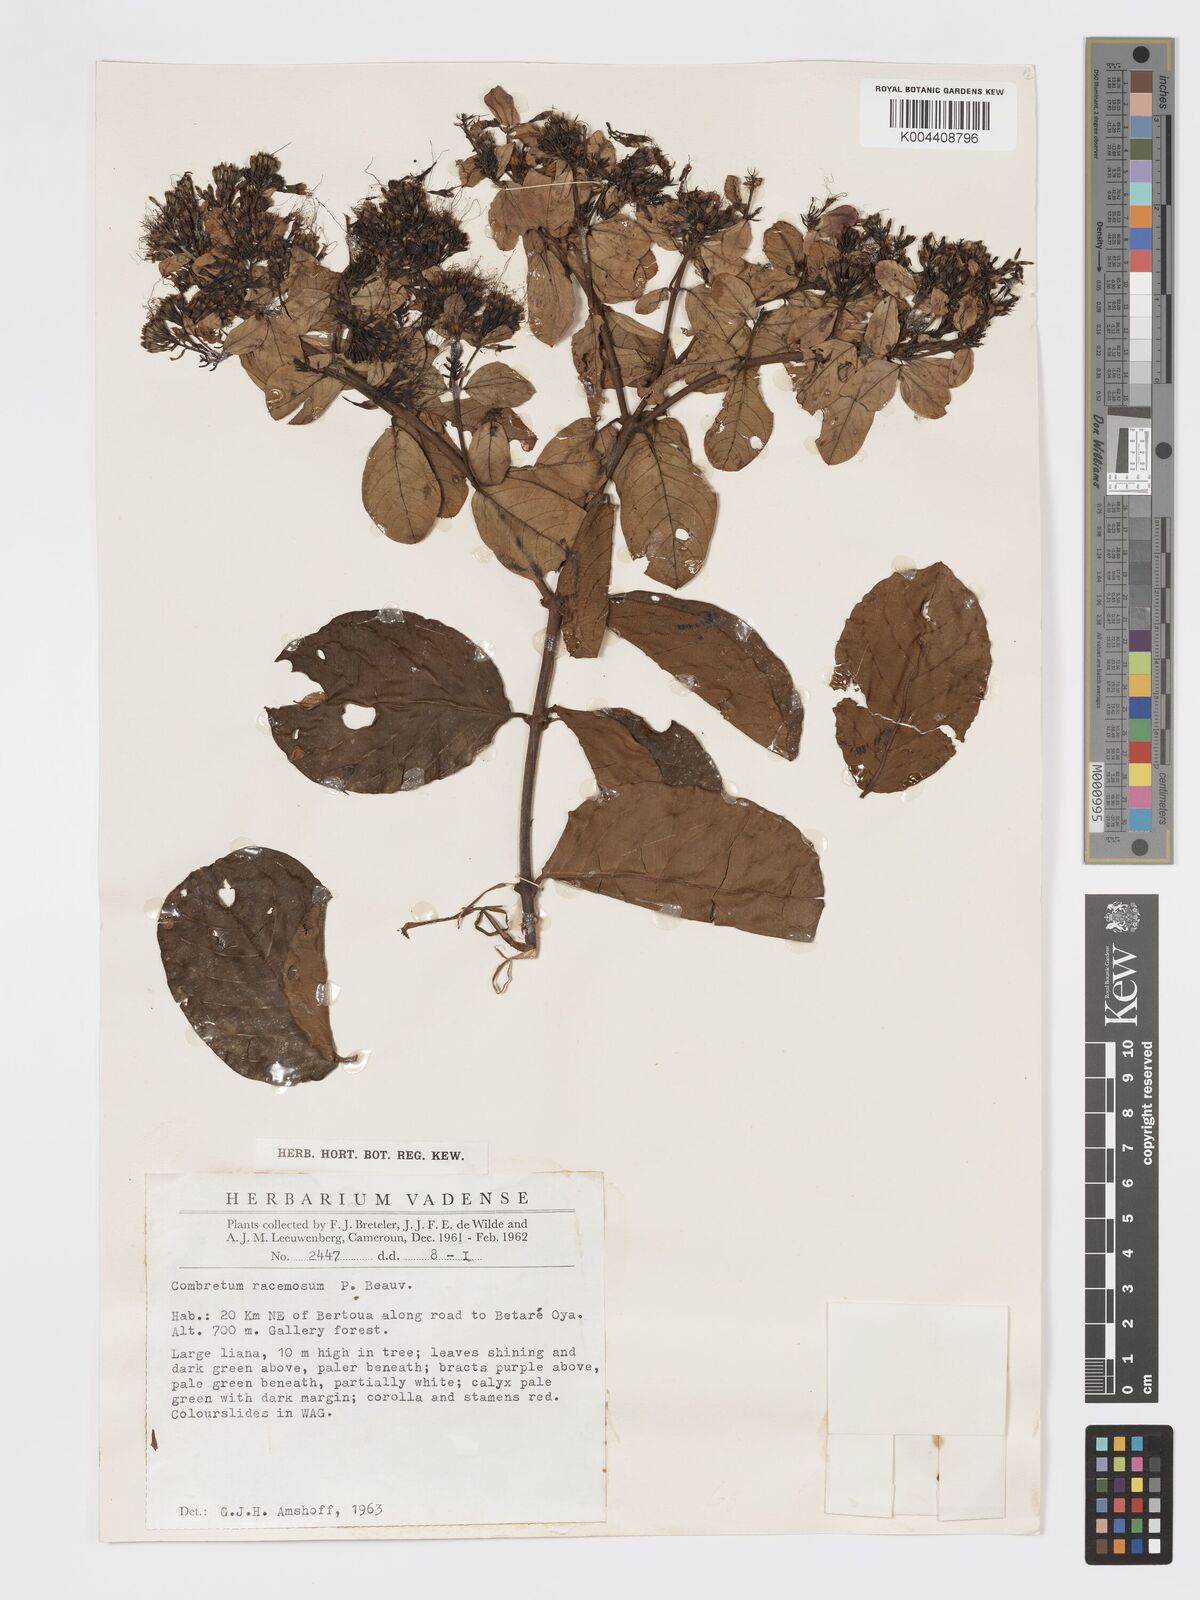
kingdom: Plantae
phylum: Tracheophyta
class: Magnoliopsida
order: Myrtales
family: Combretaceae
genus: Combretum
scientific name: Combretum racemosum
